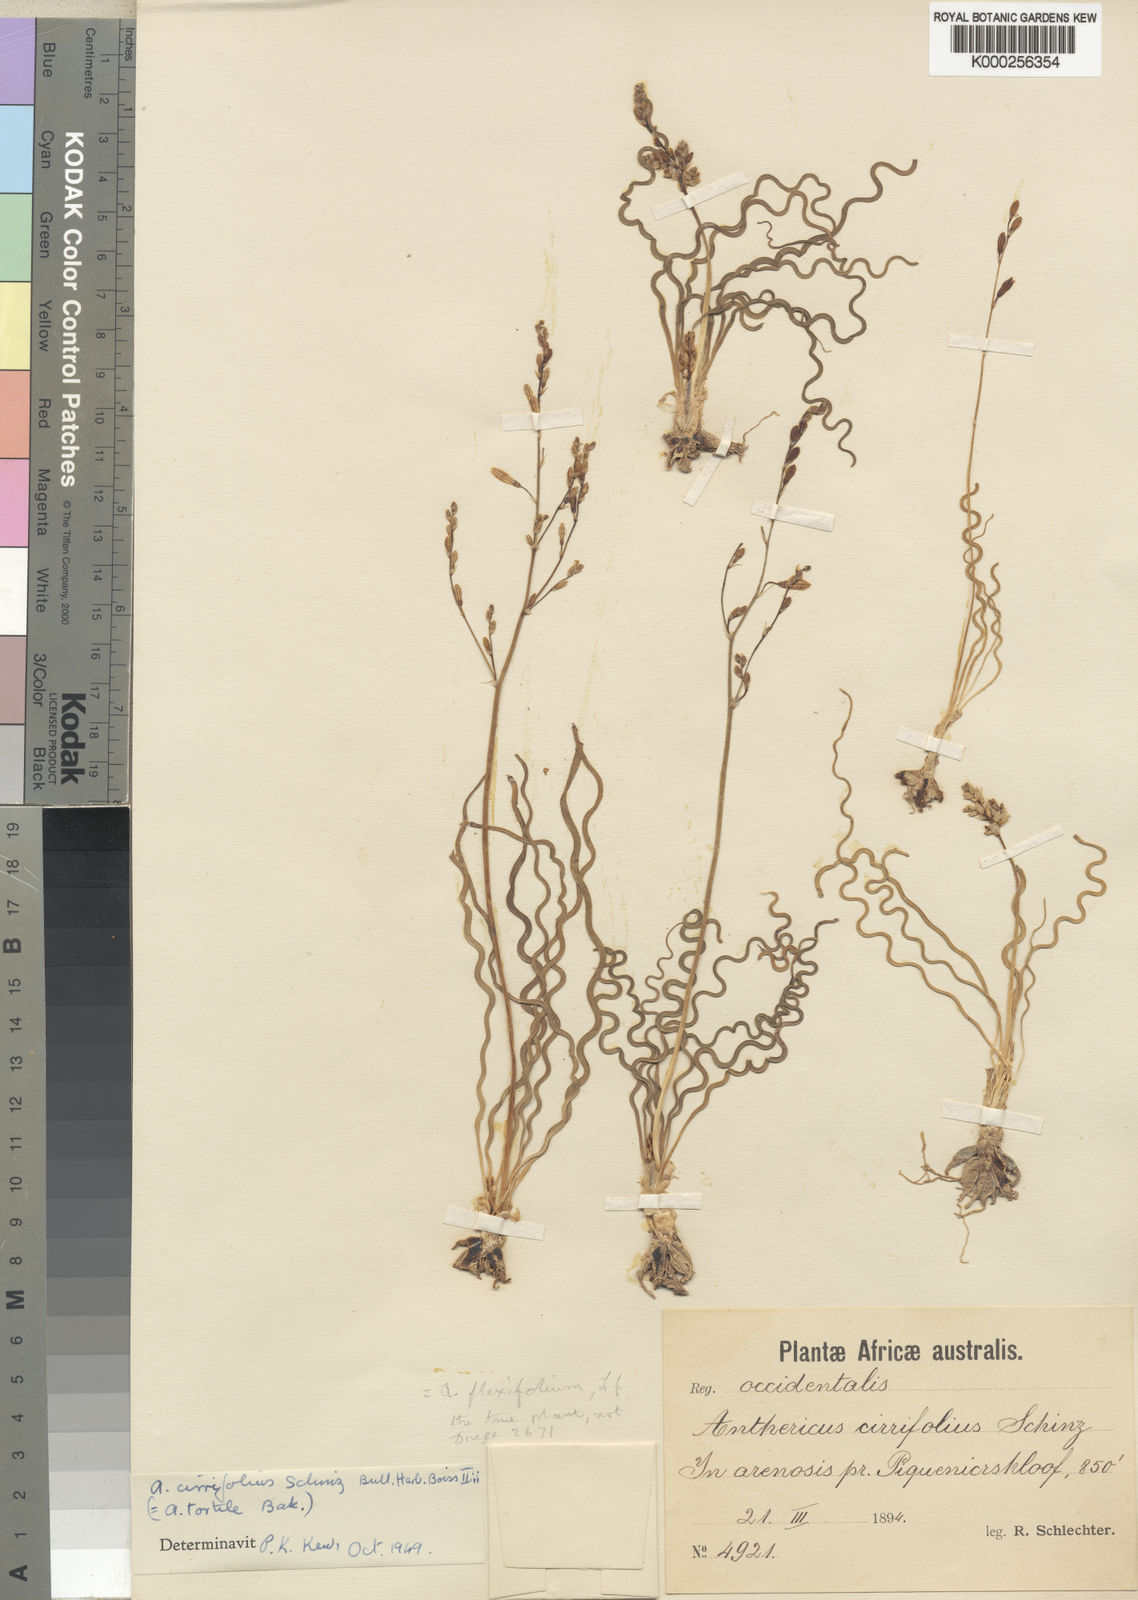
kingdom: Plantae
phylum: Tracheophyta
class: Liliopsida
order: Asparagales
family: Asphodelaceae
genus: Trachyandra
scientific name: Trachyandra flexifolia
